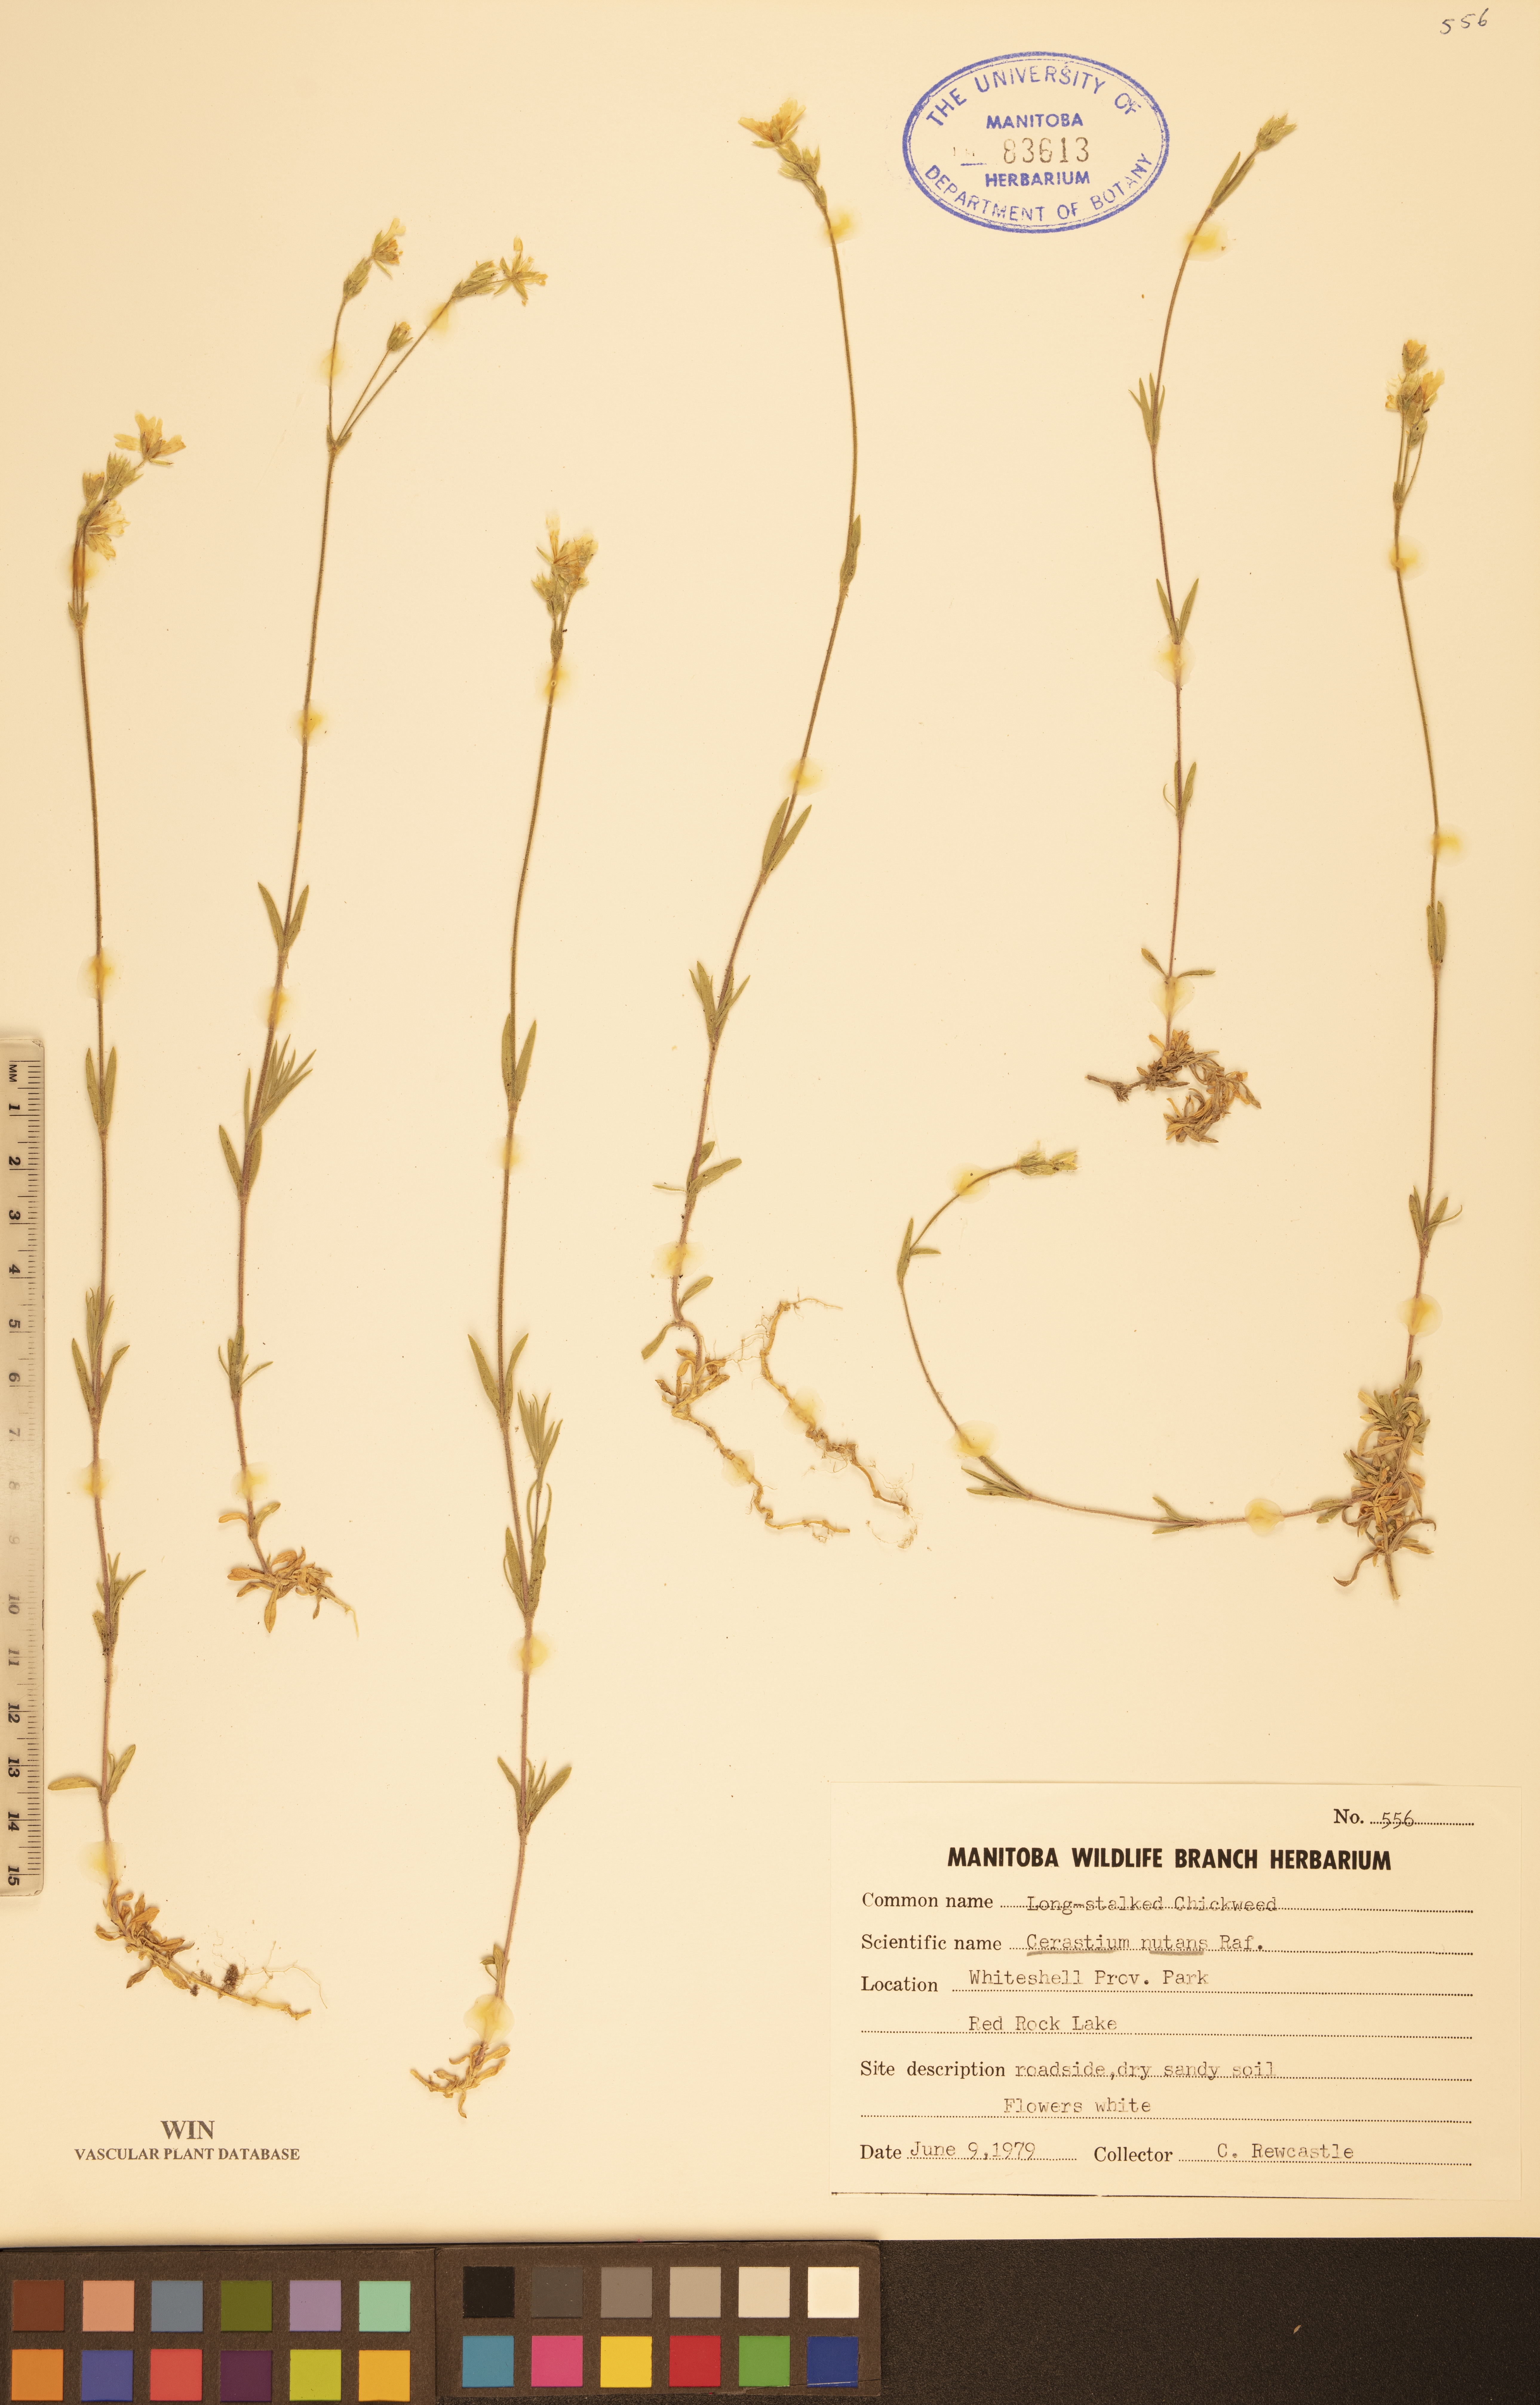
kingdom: Plantae
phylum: Tracheophyta
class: Magnoliopsida
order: Caryophyllales
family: Caryophyllaceae
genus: Cerastium
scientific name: Cerastium nutans
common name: Long-stalked chickweed
